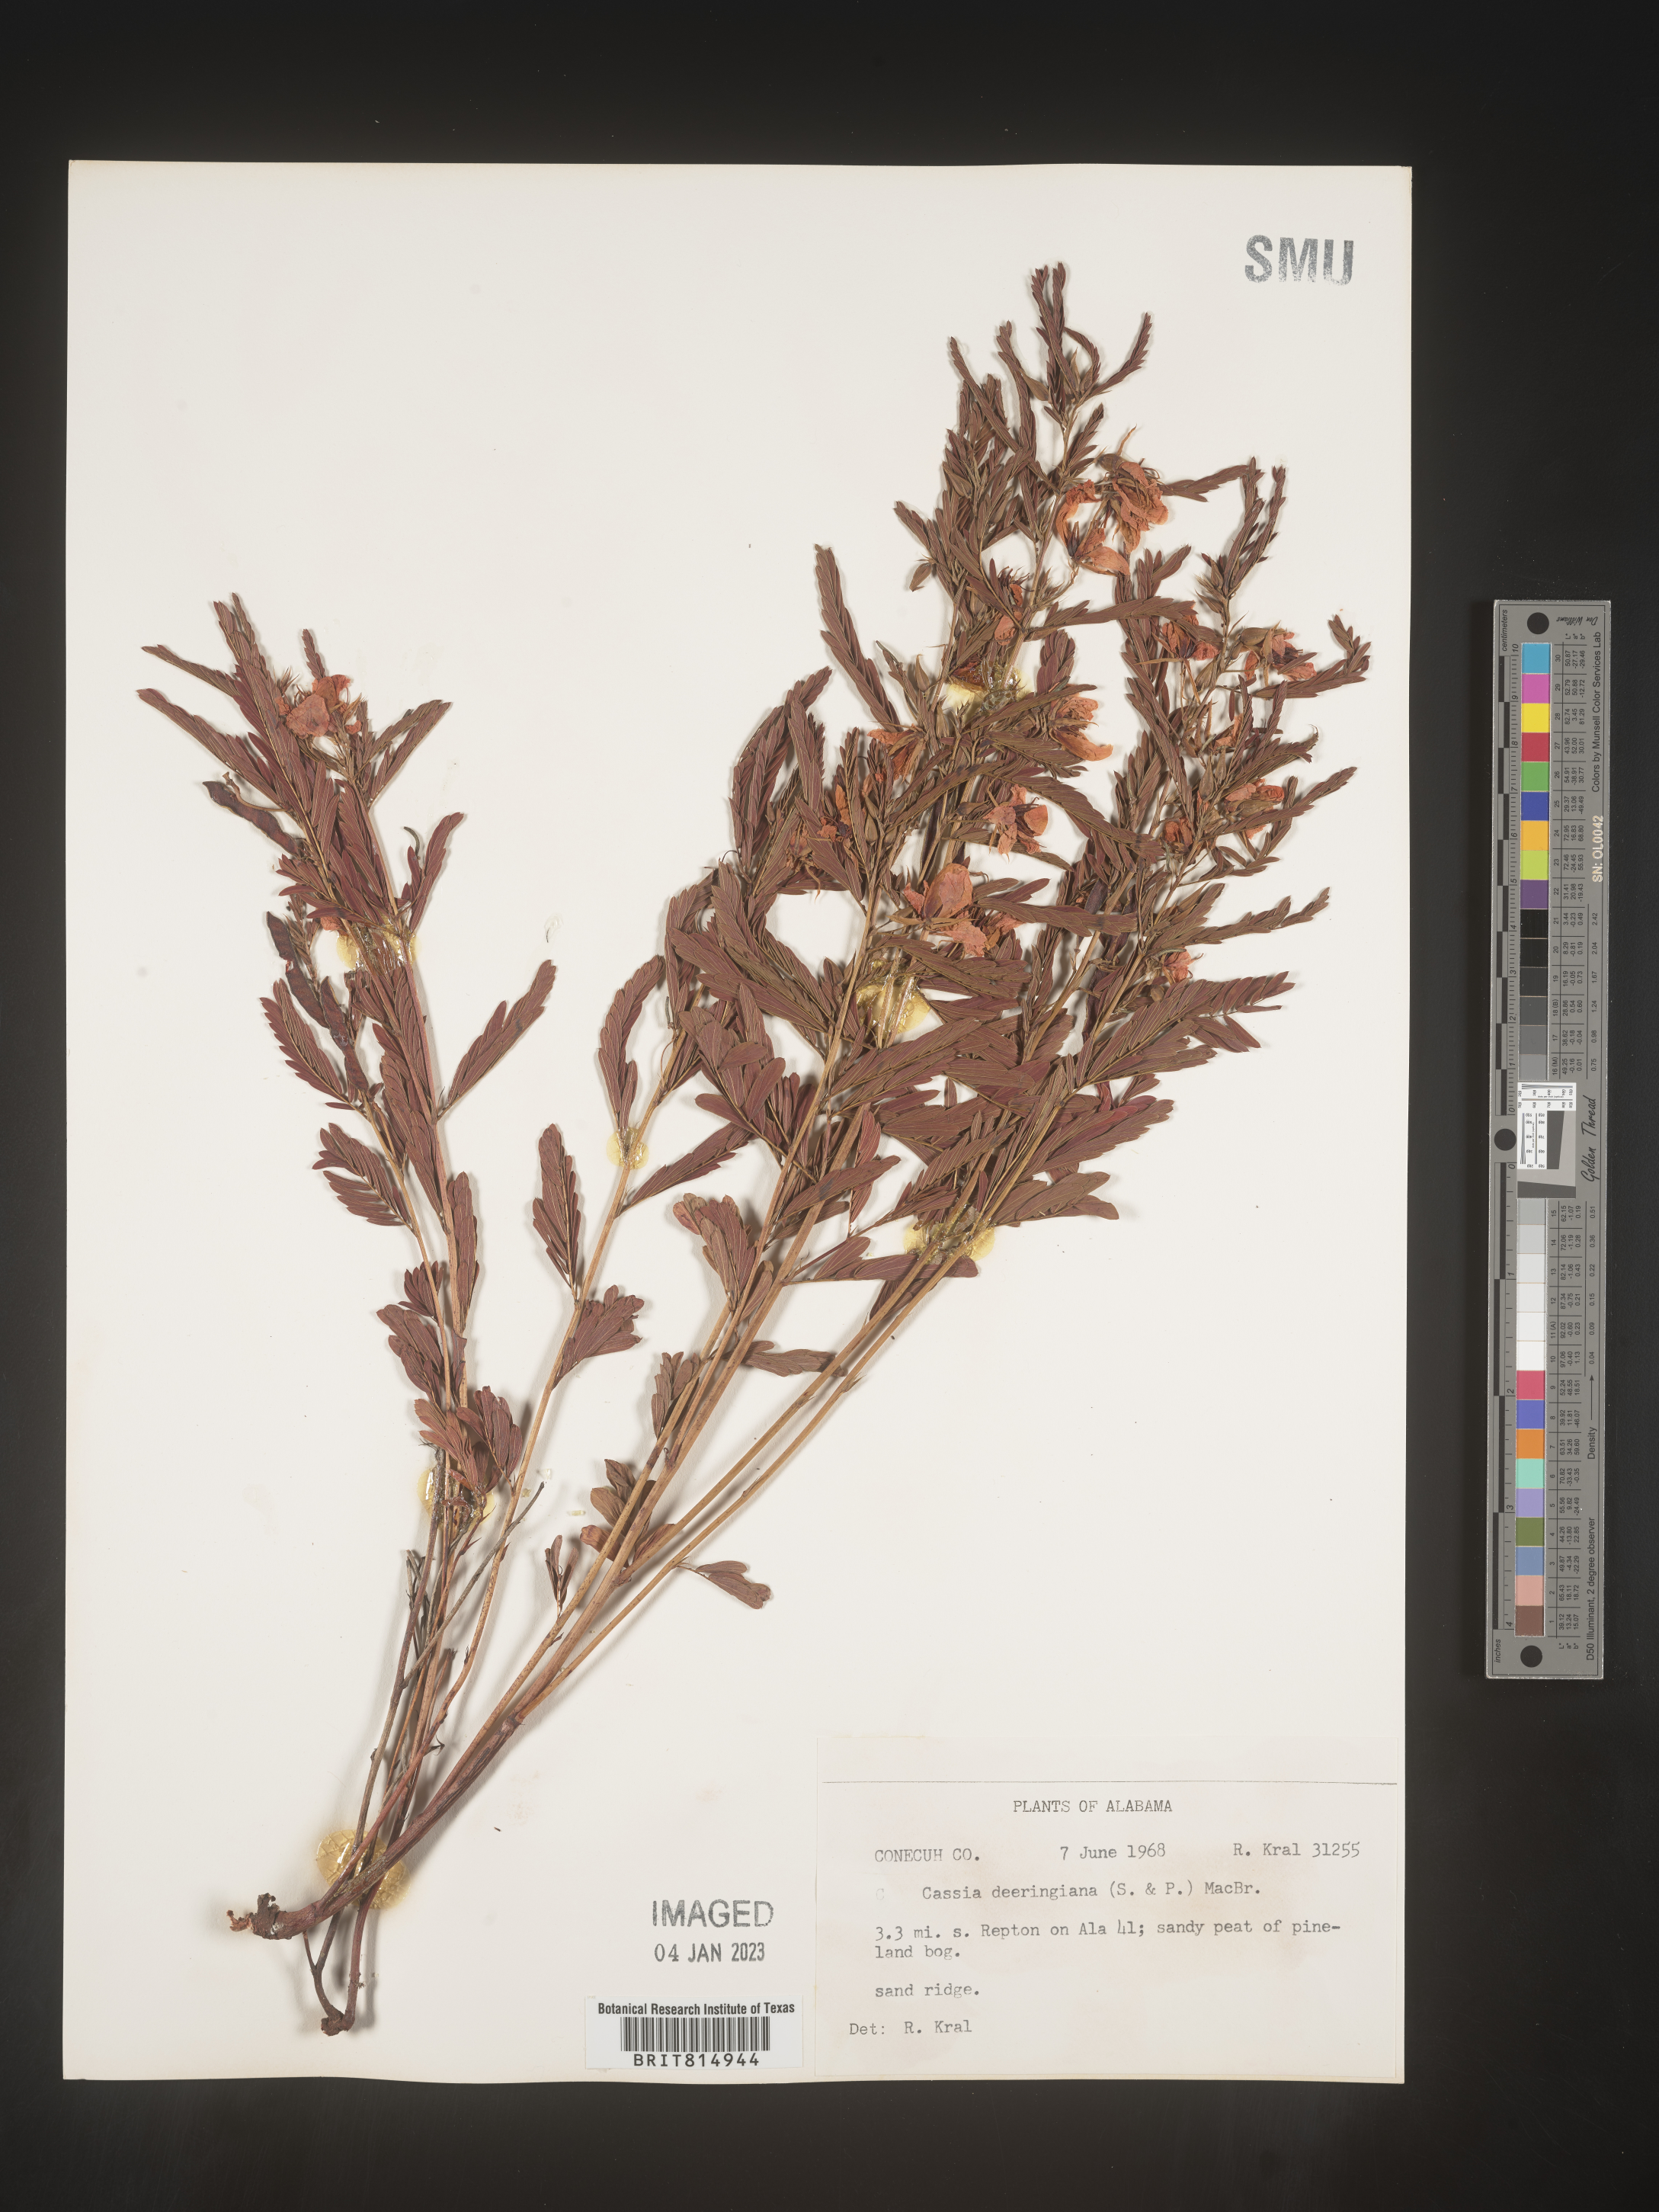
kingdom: Plantae
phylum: Tracheophyta
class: Magnoliopsida
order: Fabales
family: Fabaceae
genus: Cassia
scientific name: Cassia
